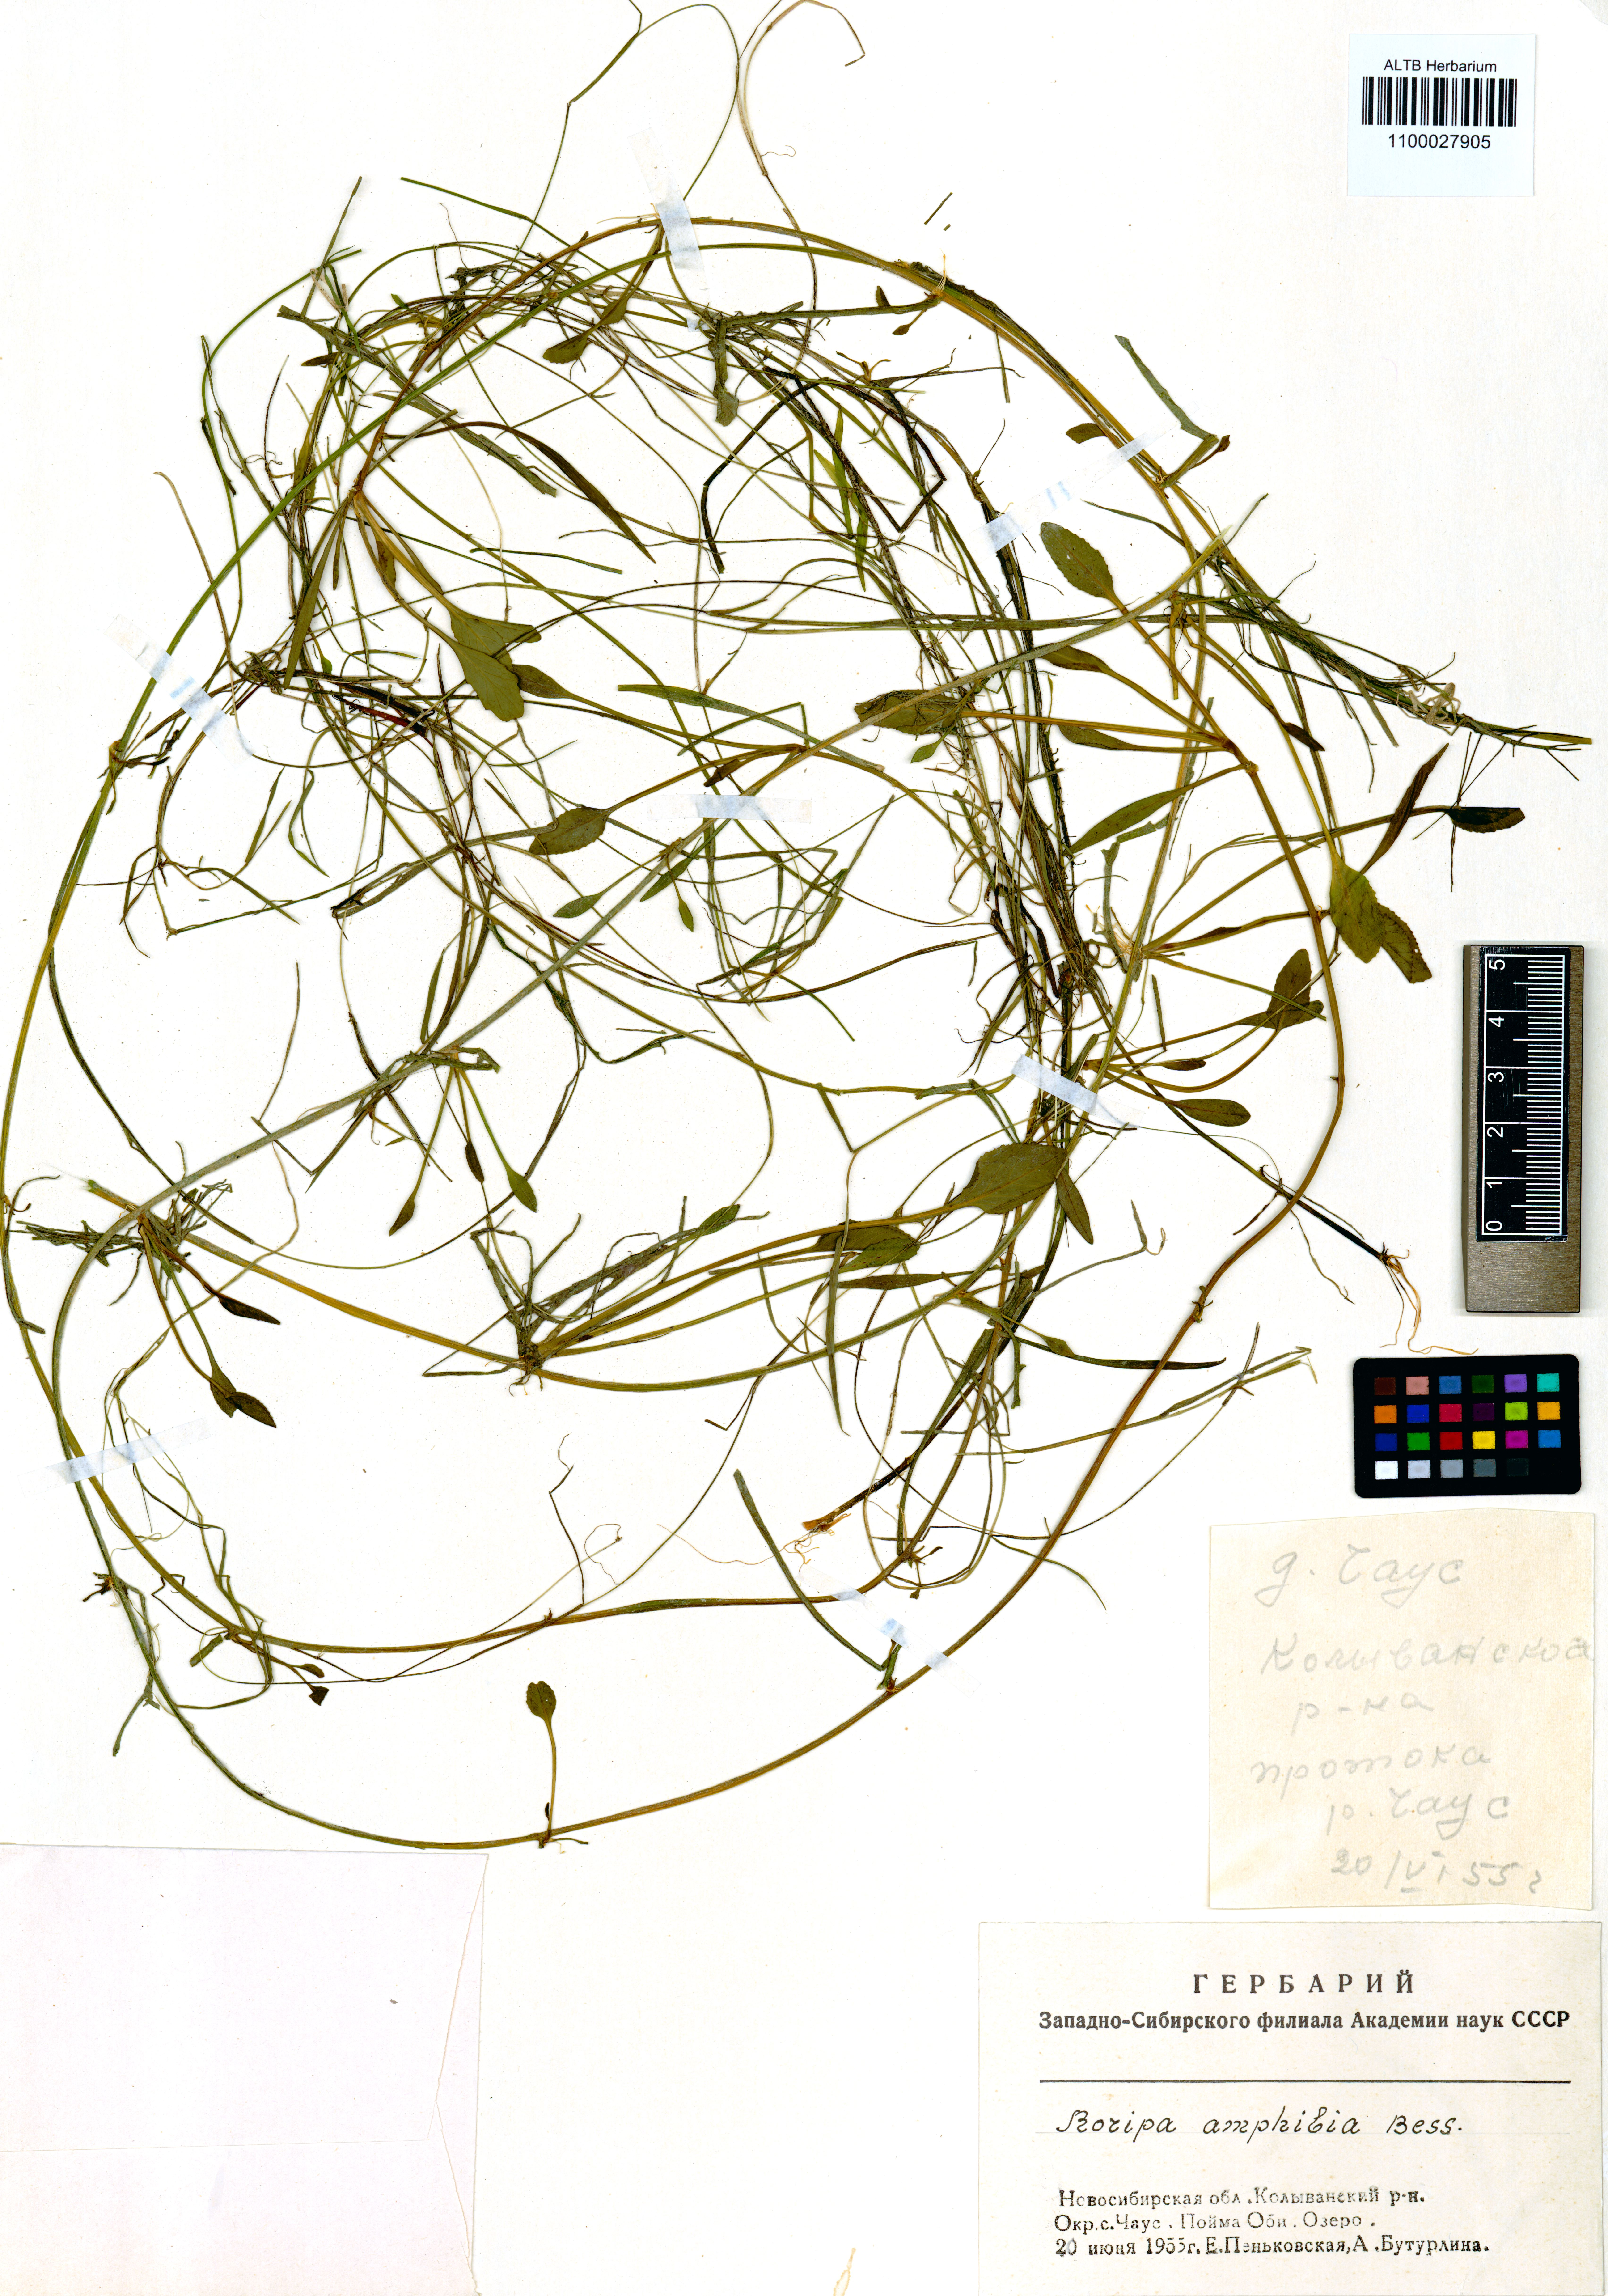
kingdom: Plantae
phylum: Tracheophyta
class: Magnoliopsida
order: Brassicales
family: Brassicaceae
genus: Rorippa
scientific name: Rorippa amphibia
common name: Great yellow-cress
